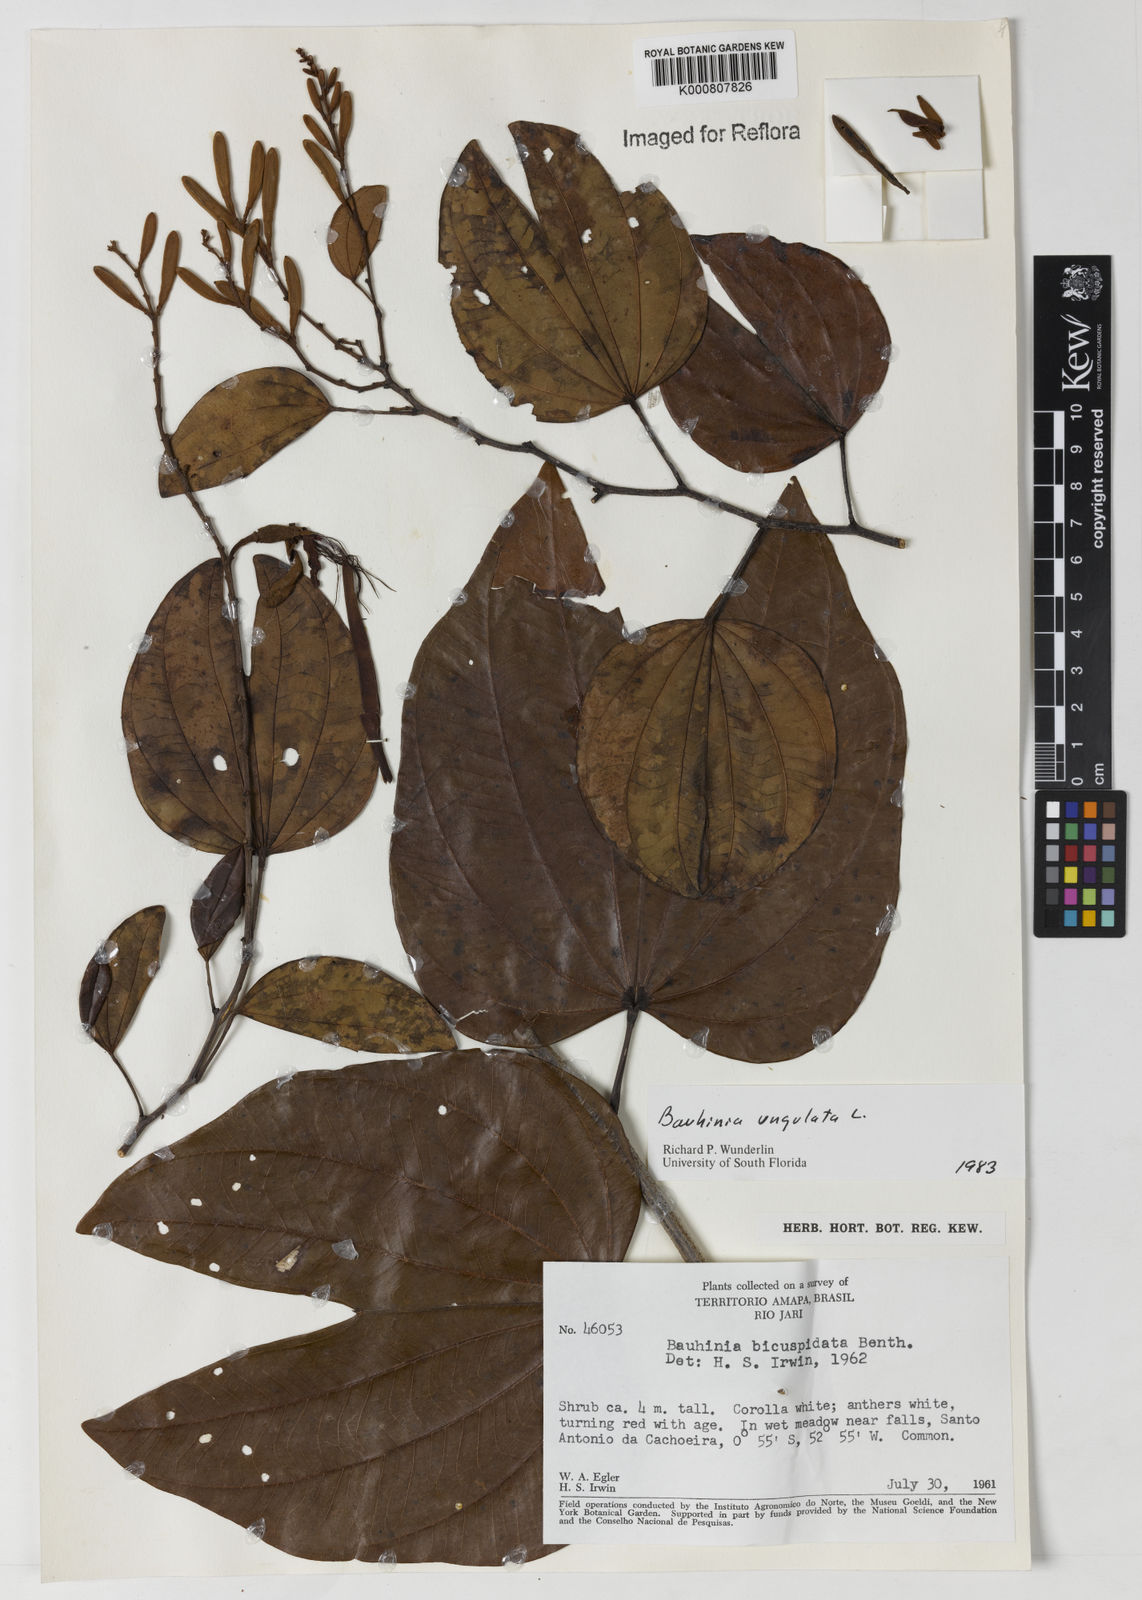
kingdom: Plantae
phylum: Tracheophyta
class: Magnoliopsida
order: Fabales
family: Fabaceae
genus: Bauhinia
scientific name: Bauhinia ungulata
